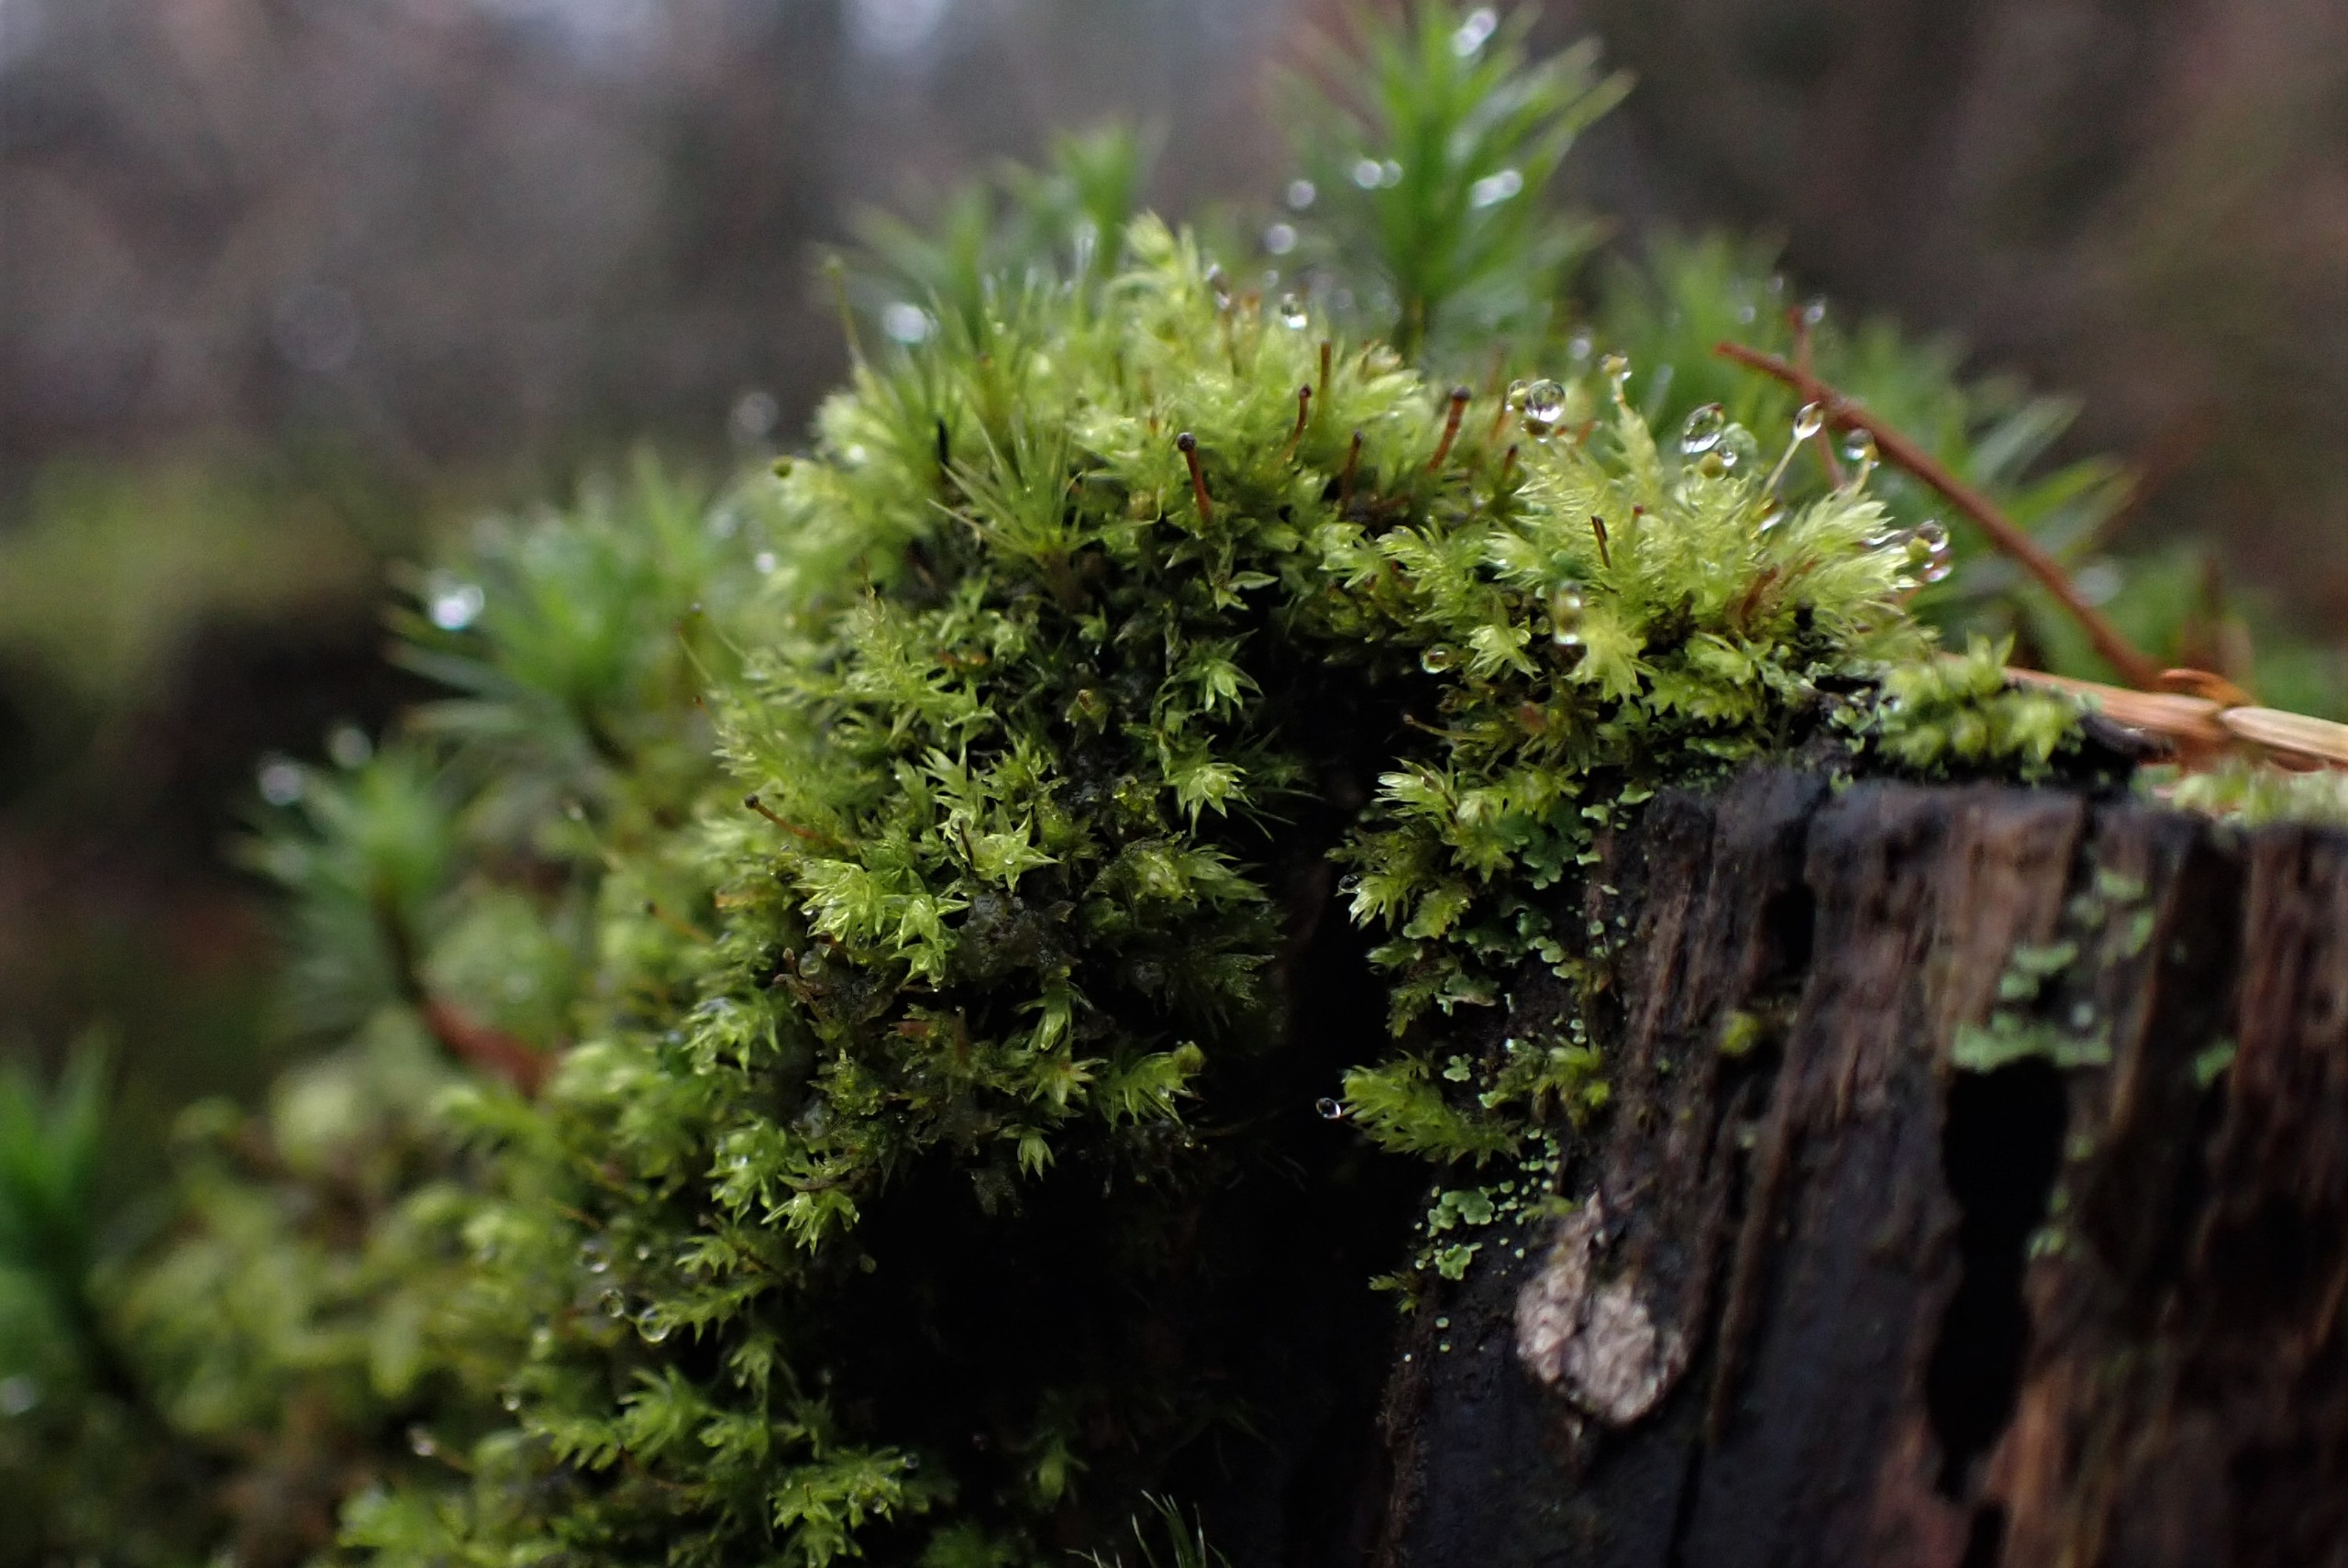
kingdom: Plantae
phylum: Bryophyta
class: Bryopsida
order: Aulacomniales
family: Aulacomniaceae
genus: Aulacomnium
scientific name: Aulacomnium androgynum
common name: Kugle-filtmos
